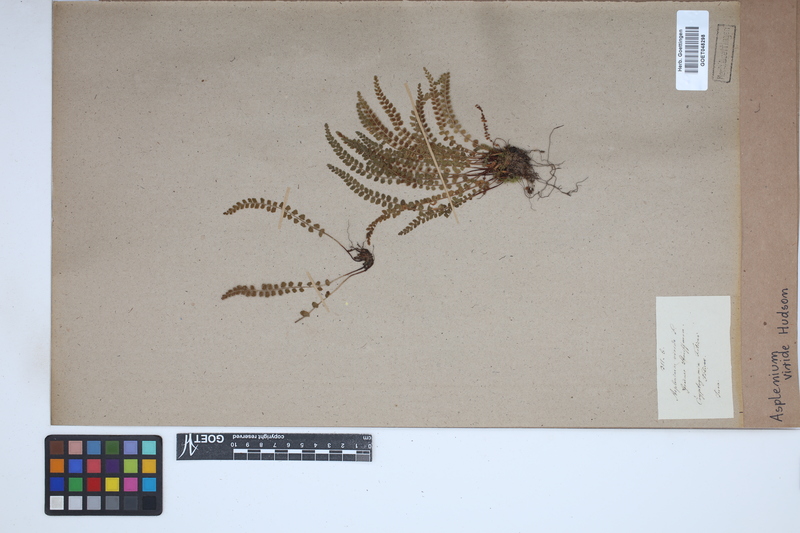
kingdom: Plantae
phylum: Tracheophyta
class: Polypodiopsida
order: Polypodiales
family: Aspleniaceae
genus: Asplenium
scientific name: Asplenium viride
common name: Green spleenwort
